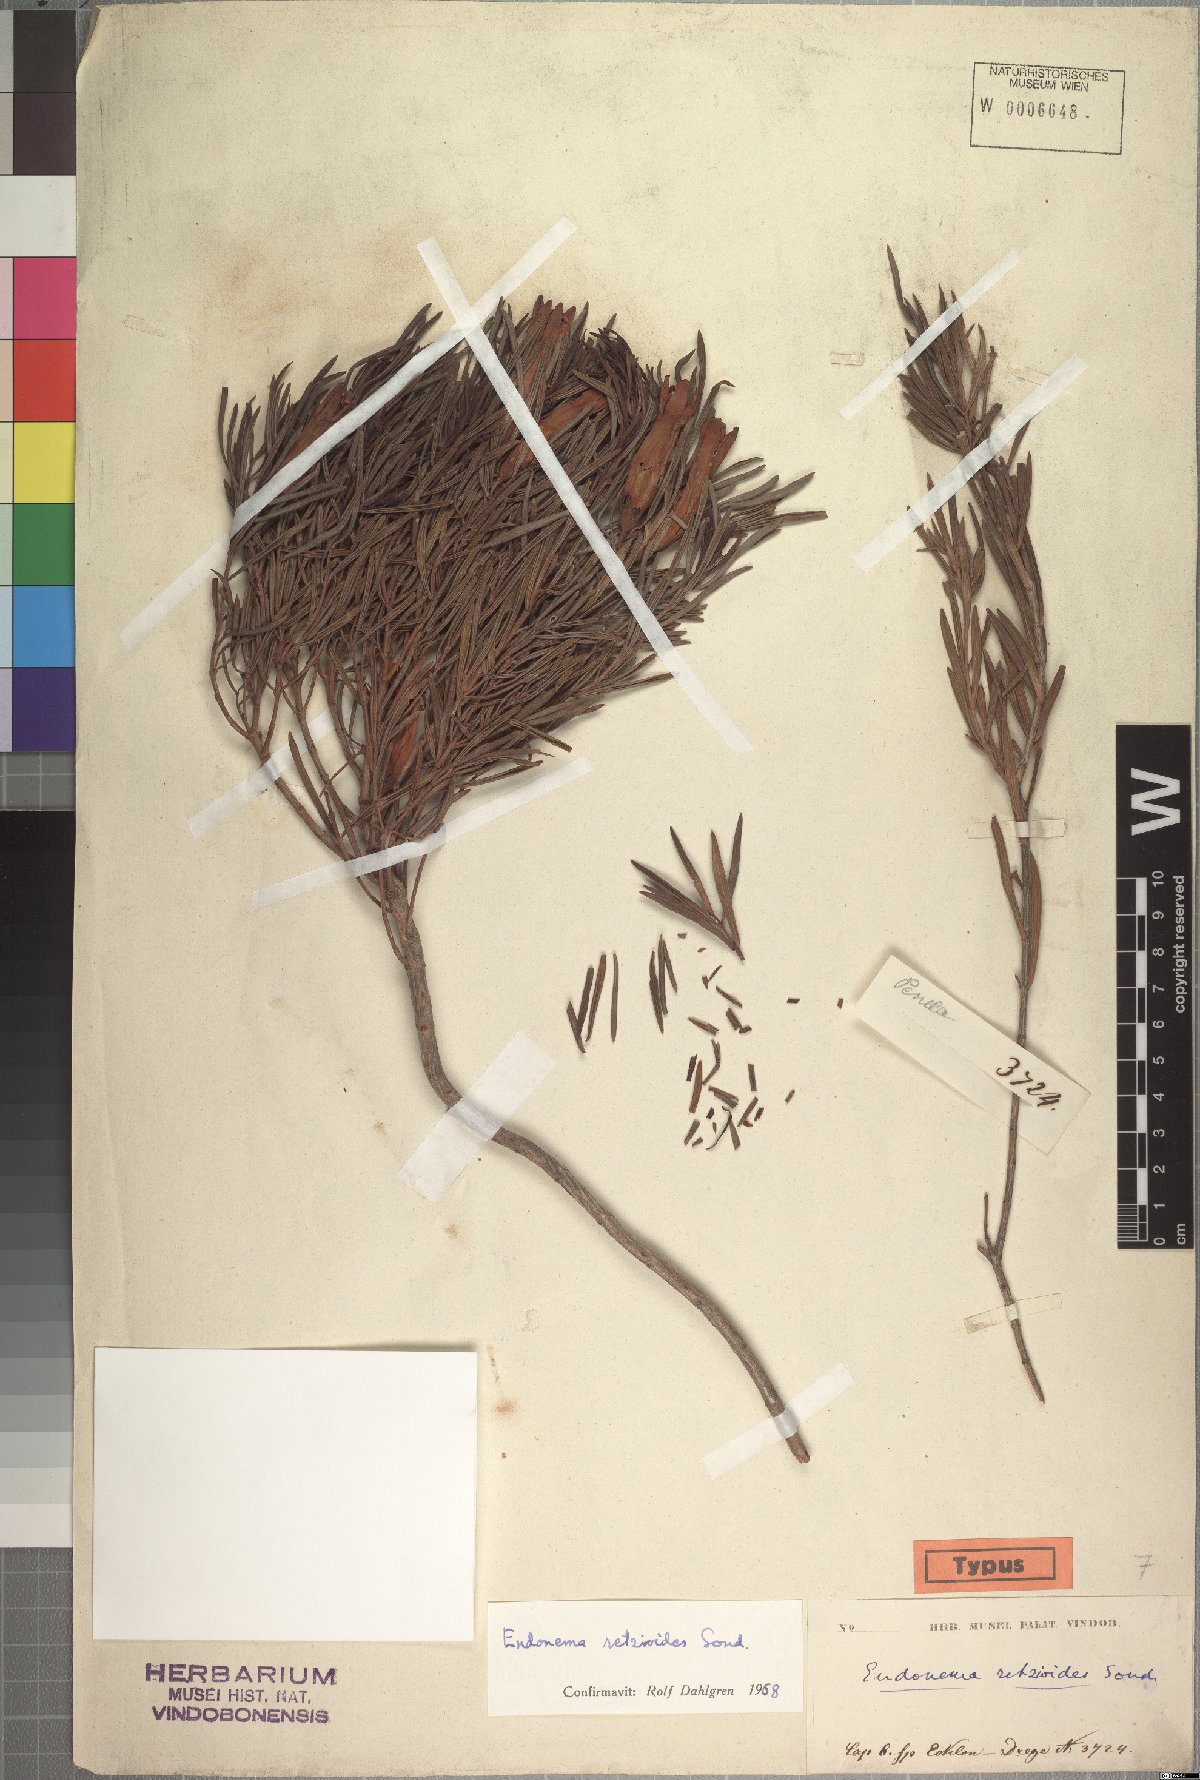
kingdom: Plantae
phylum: Tracheophyta
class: Magnoliopsida
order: Myrtales
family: Penaeaceae
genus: Endonema
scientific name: Endonema retzioides
